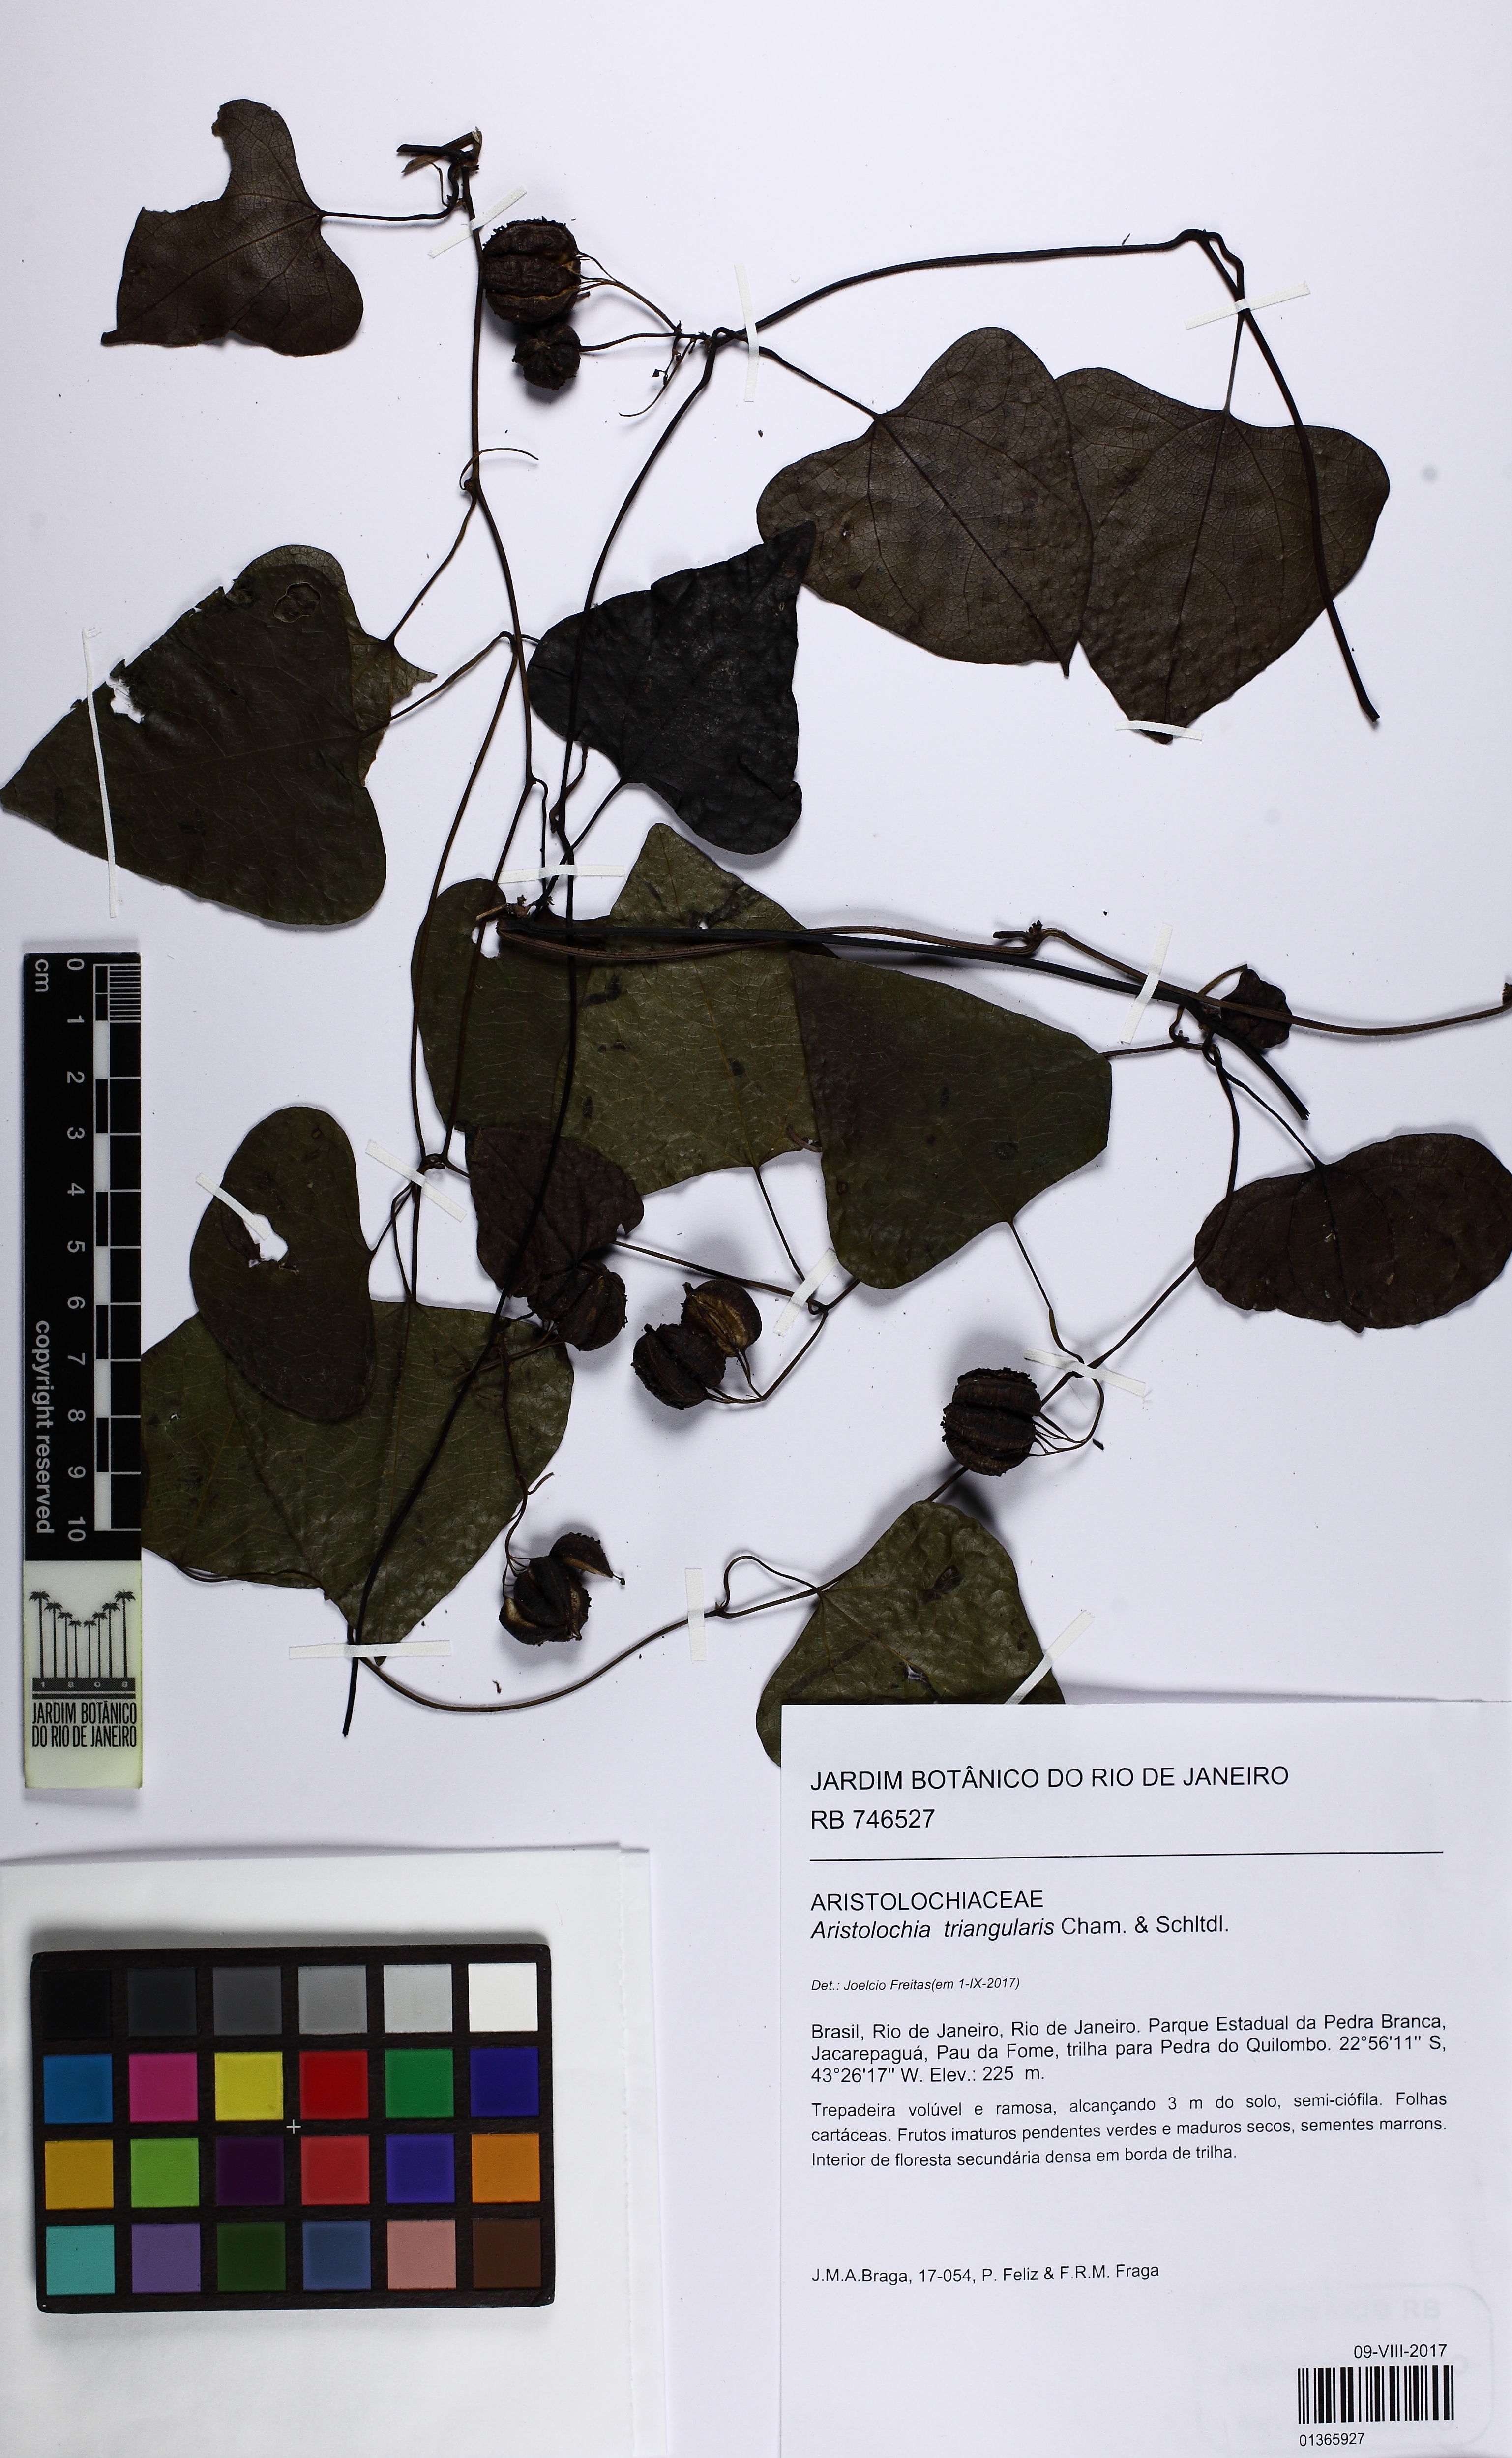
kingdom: Plantae
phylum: Tracheophyta
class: Magnoliopsida
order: Piperales
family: Aristolochiaceae
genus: Aristolochia
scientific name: Aristolochia triangularis
